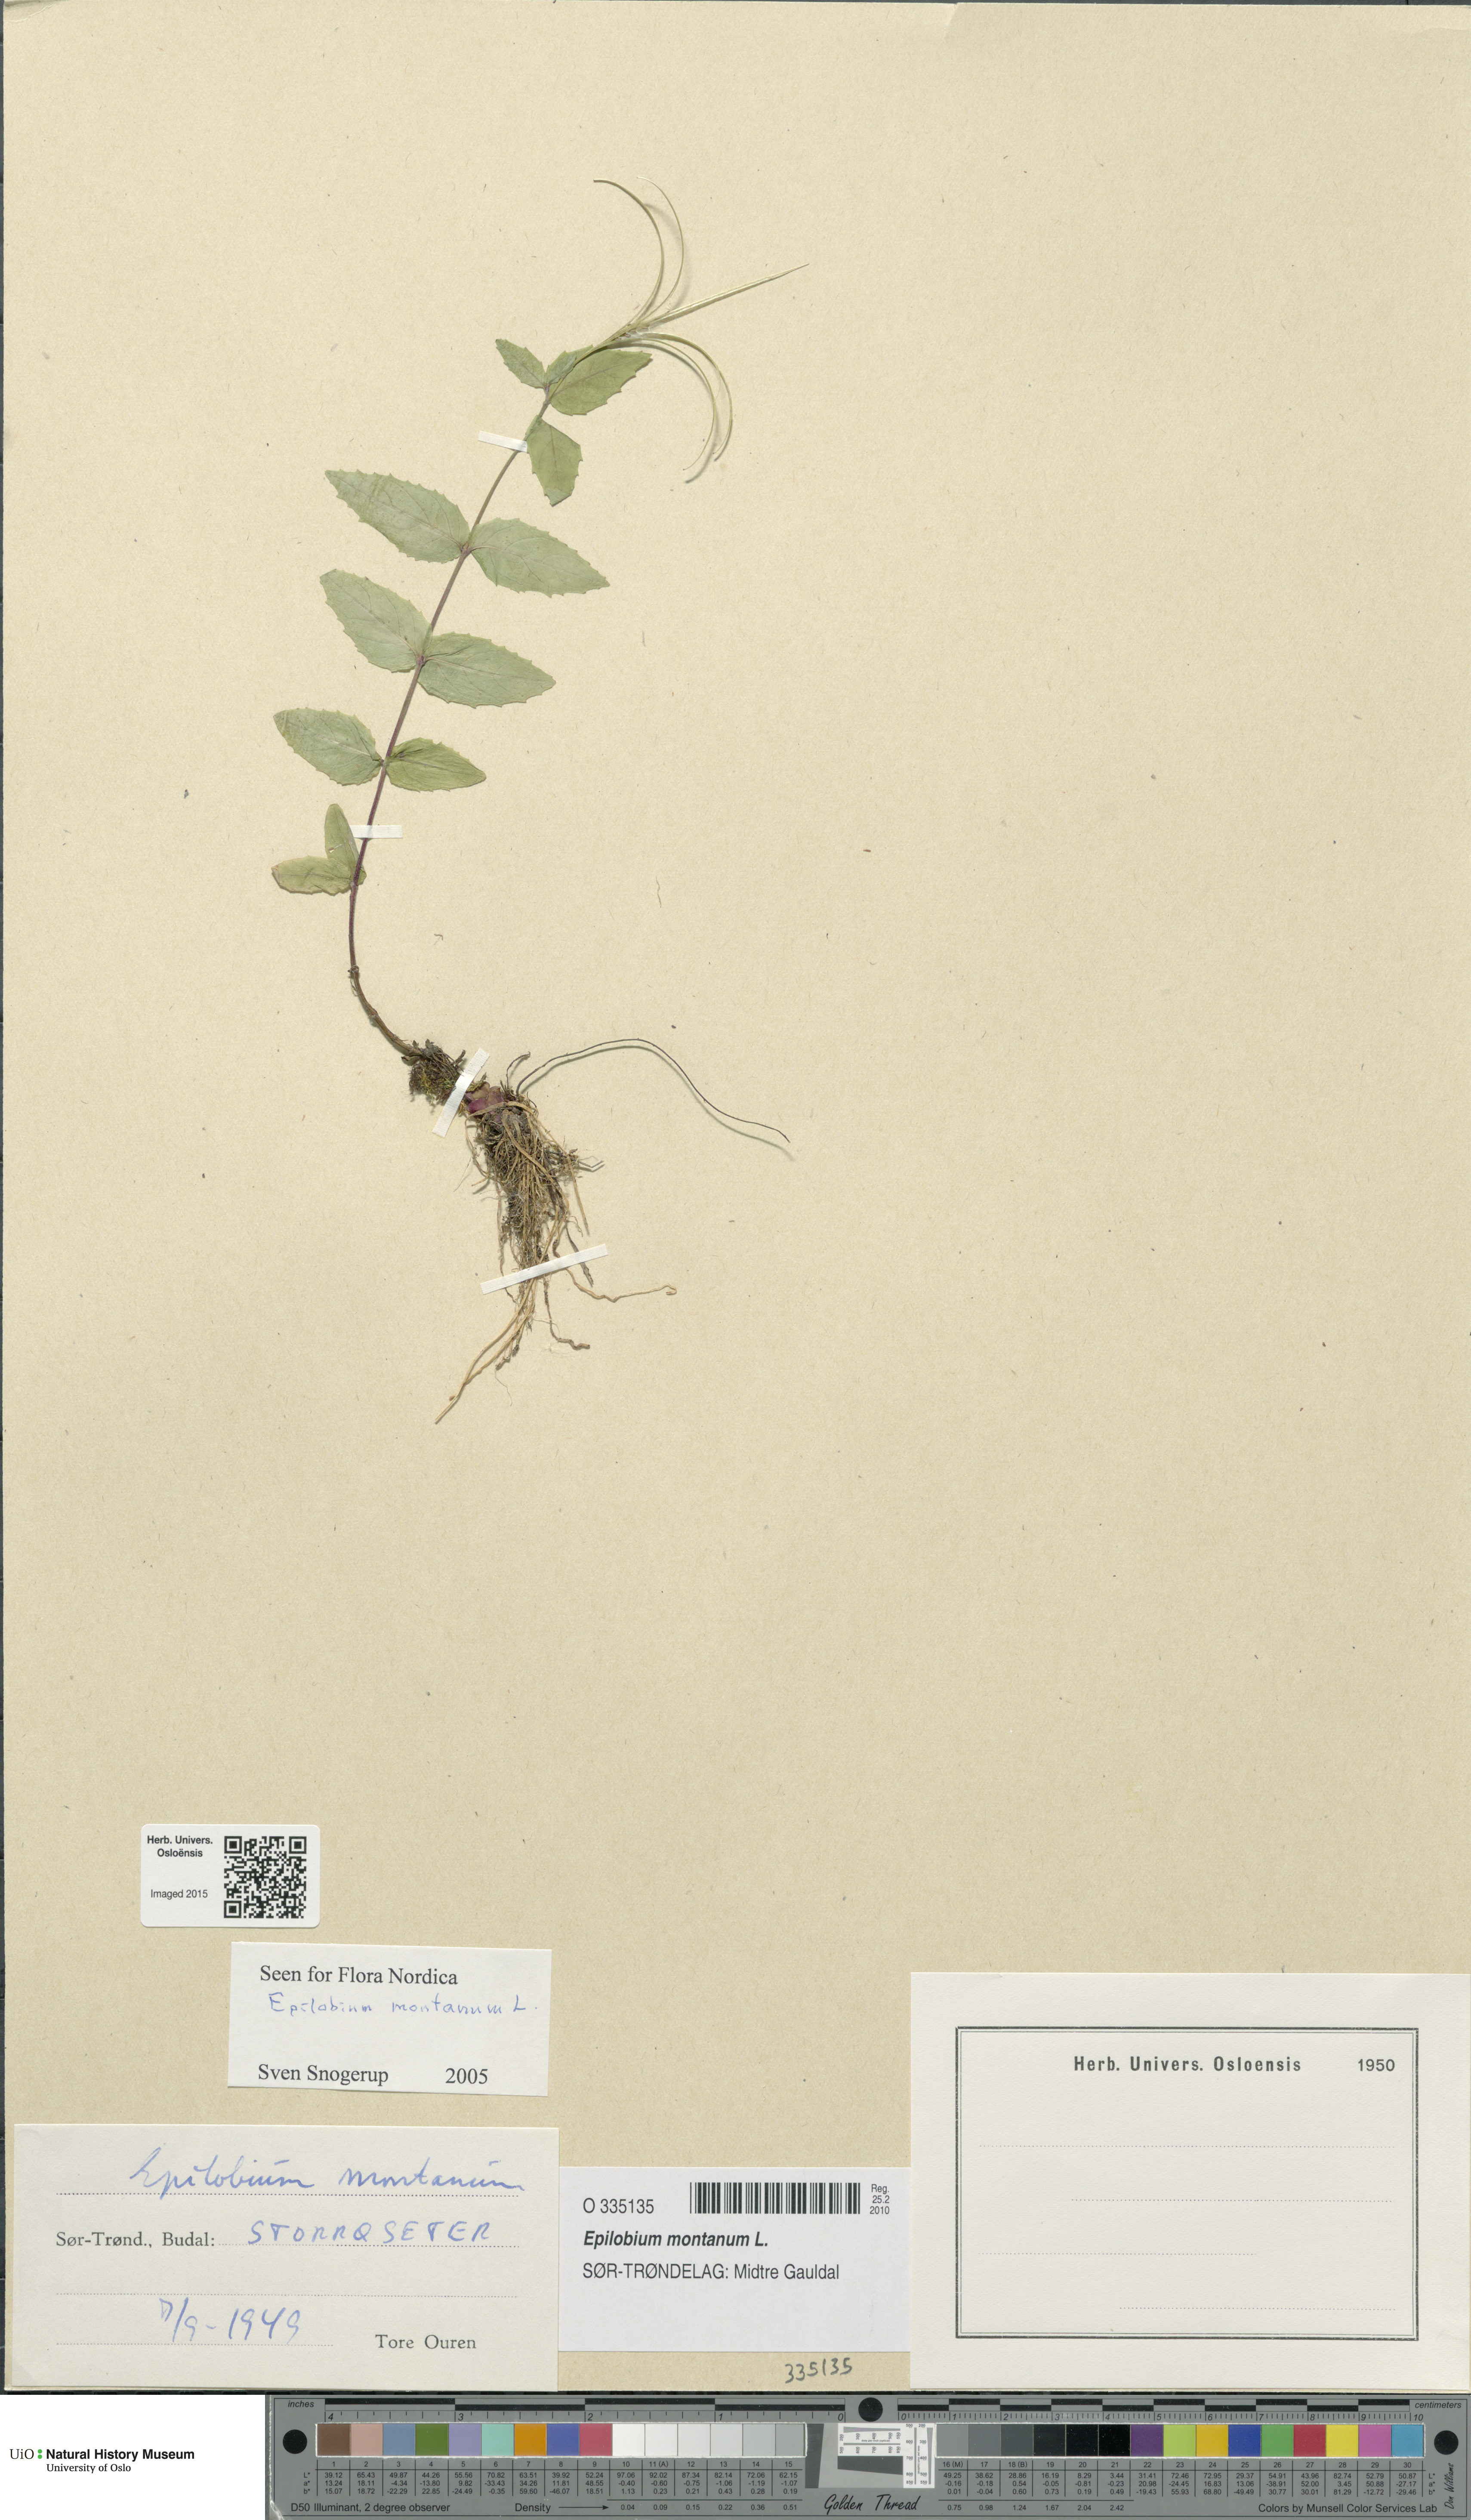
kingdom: Plantae
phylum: Tracheophyta
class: Magnoliopsida
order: Myrtales
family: Onagraceae
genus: Epilobium
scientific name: Epilobium montanum
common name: Broad-leaved willowherb
